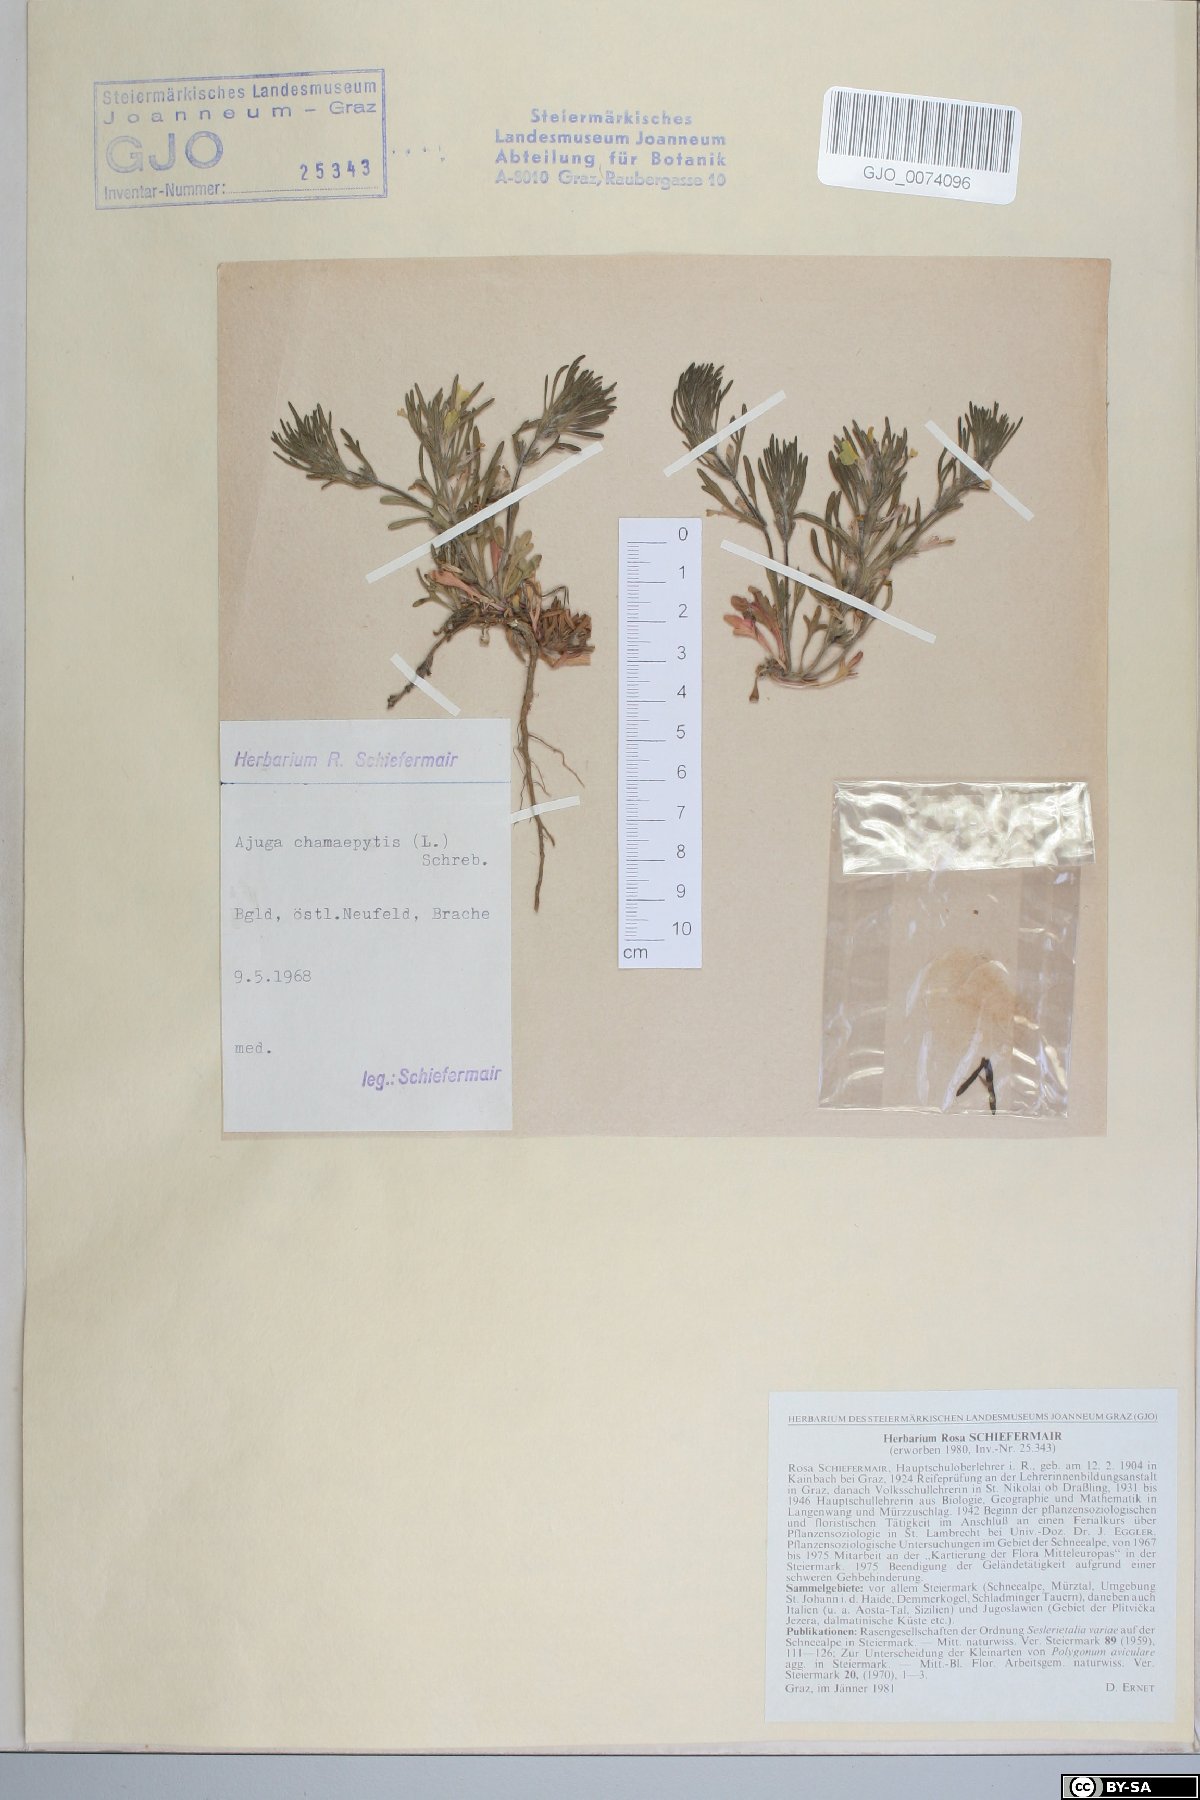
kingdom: Plantae
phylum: Tracheophyta
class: Magnoliopsida
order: Lamiales
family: Lamiaceae
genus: Ajuga
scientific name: Ajuga chamaepitys
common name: Ground-pine
